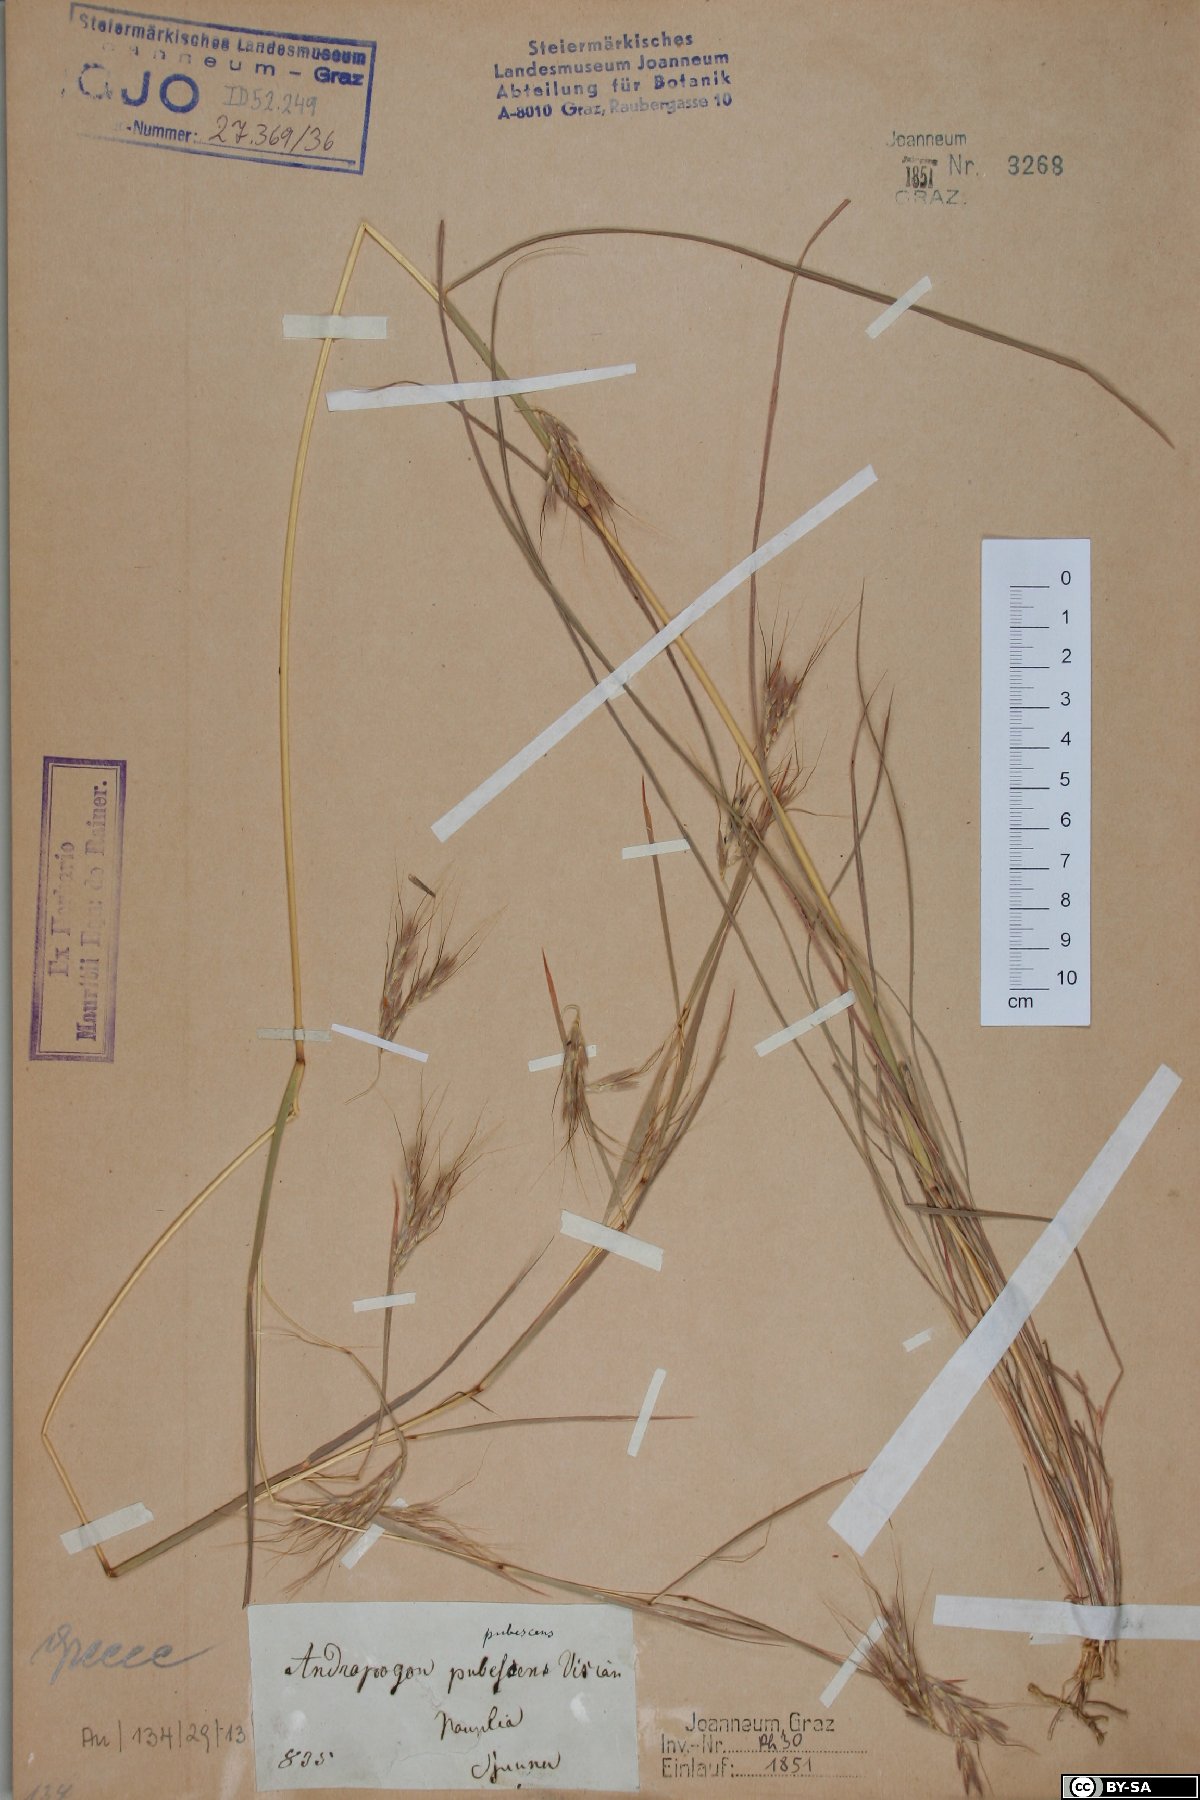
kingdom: Plantae
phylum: Tracheophyta
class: Liliopsida
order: Poales
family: Poaceae
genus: Hyparrhenia
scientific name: Hyparrhenia hirta
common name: Thatching grass
